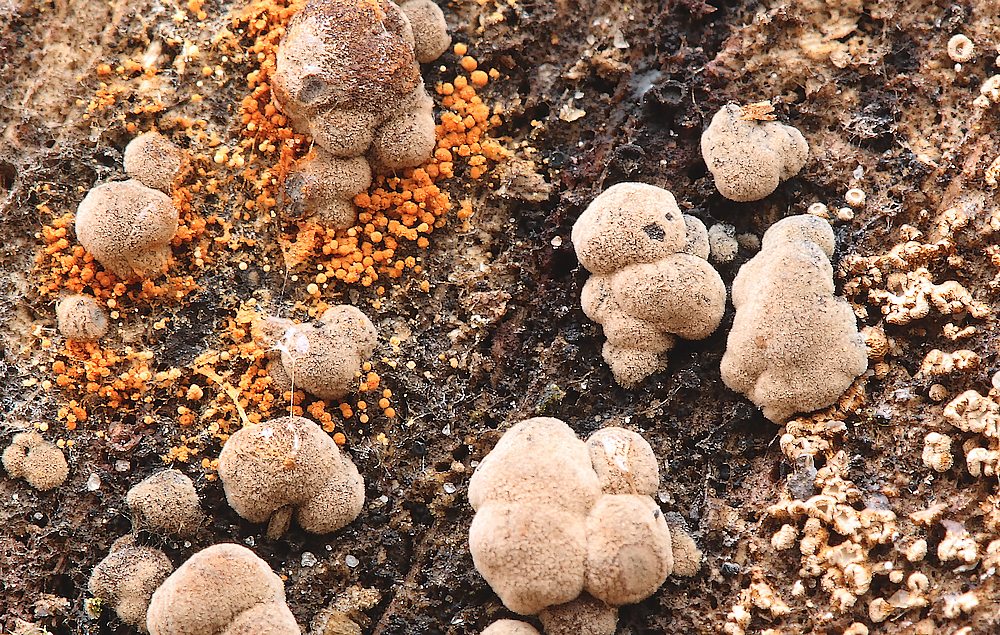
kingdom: Fungi
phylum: Ascomycota
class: Sordariomycetes
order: Xylariales
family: Hypoxylaceae
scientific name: Hypoxylaceae
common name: kulbærfamilien
